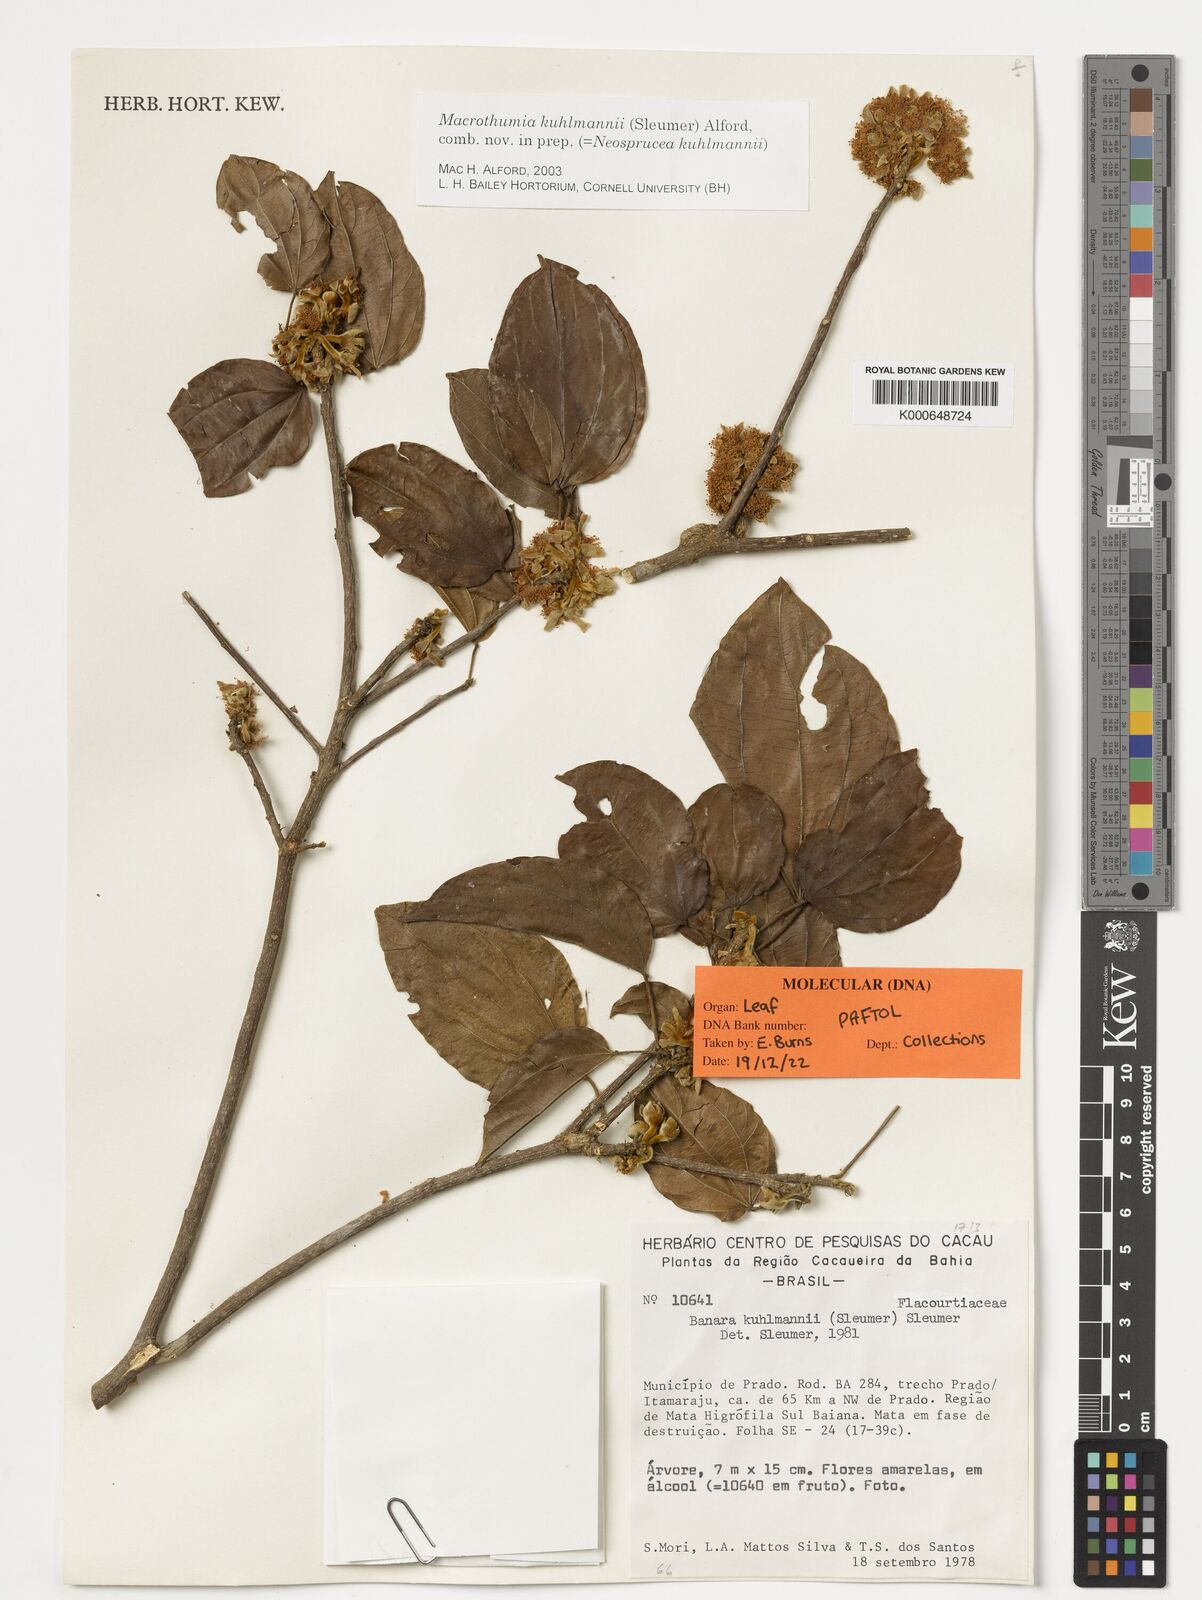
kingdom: Plantae
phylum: Tracheophyta
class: Magnoliopsida
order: Malpighiales
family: Salicaceae
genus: Macrothumia
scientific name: Macrothumia kuhlmannii
